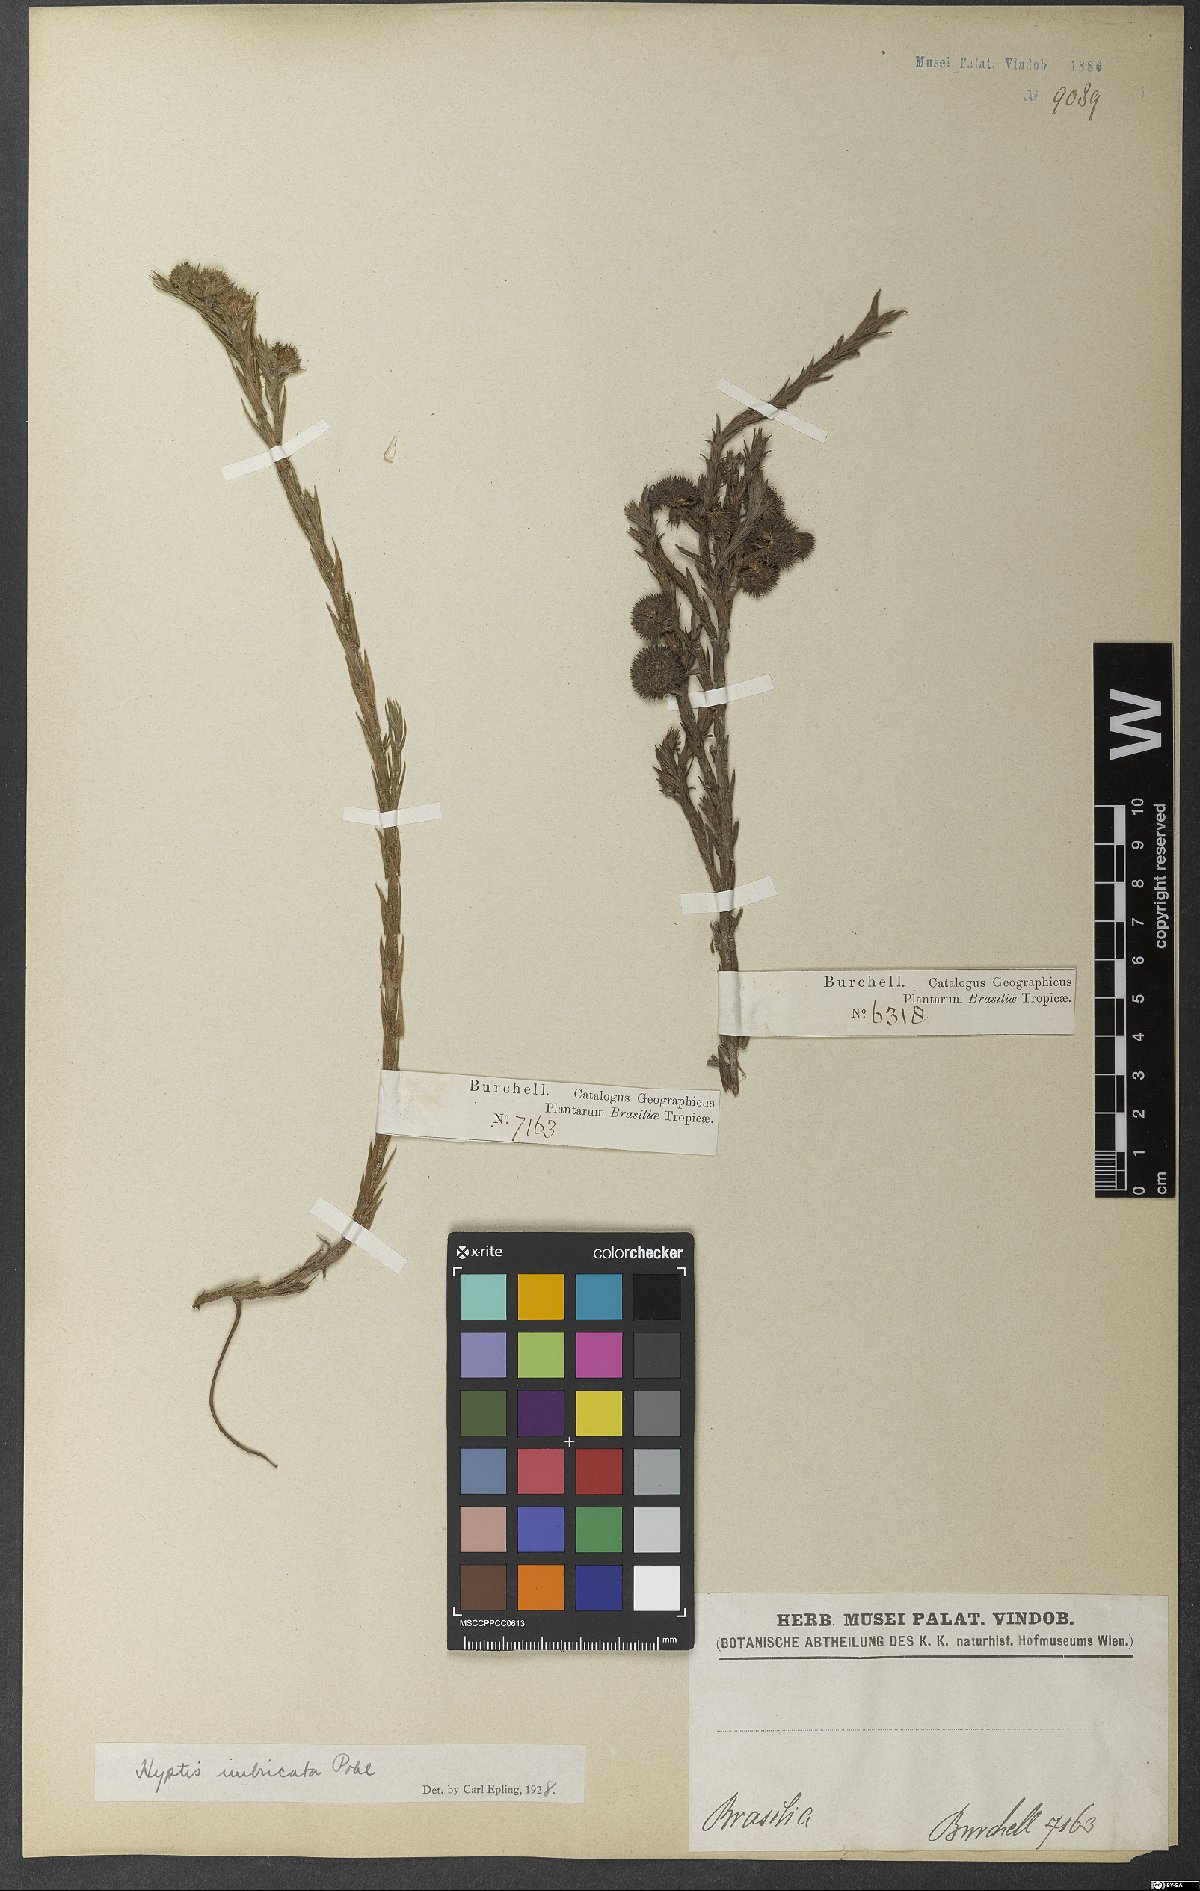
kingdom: Plantae
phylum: Tracheophyta
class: Magnoliopsida
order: Lamiales
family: Lamiaceae
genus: Hyptis
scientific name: Hyptis imbricata
